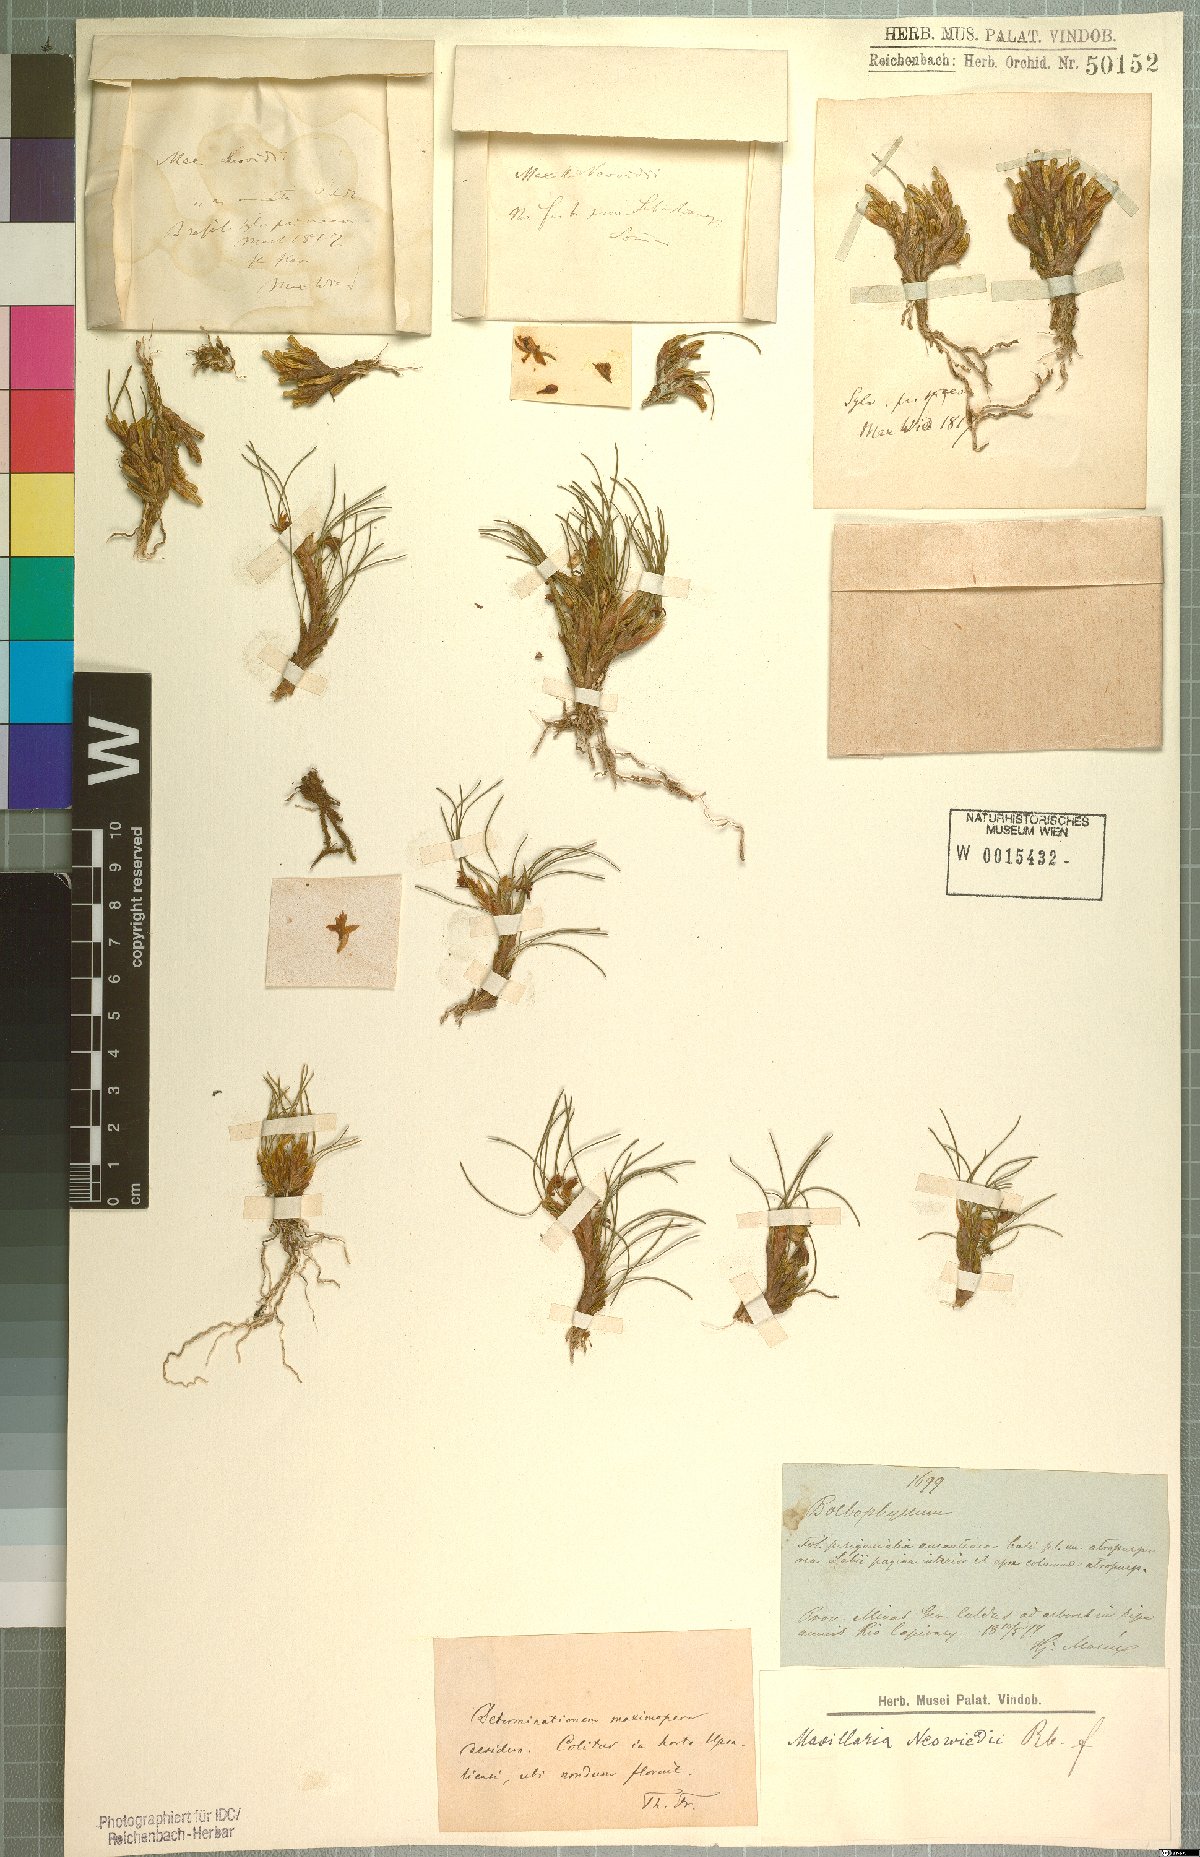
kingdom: Plantae
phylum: Tracheophyta
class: Liliopsida
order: Asparagales
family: Orchidaceae
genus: Maxillaria
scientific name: Maxillaria neowiedii
